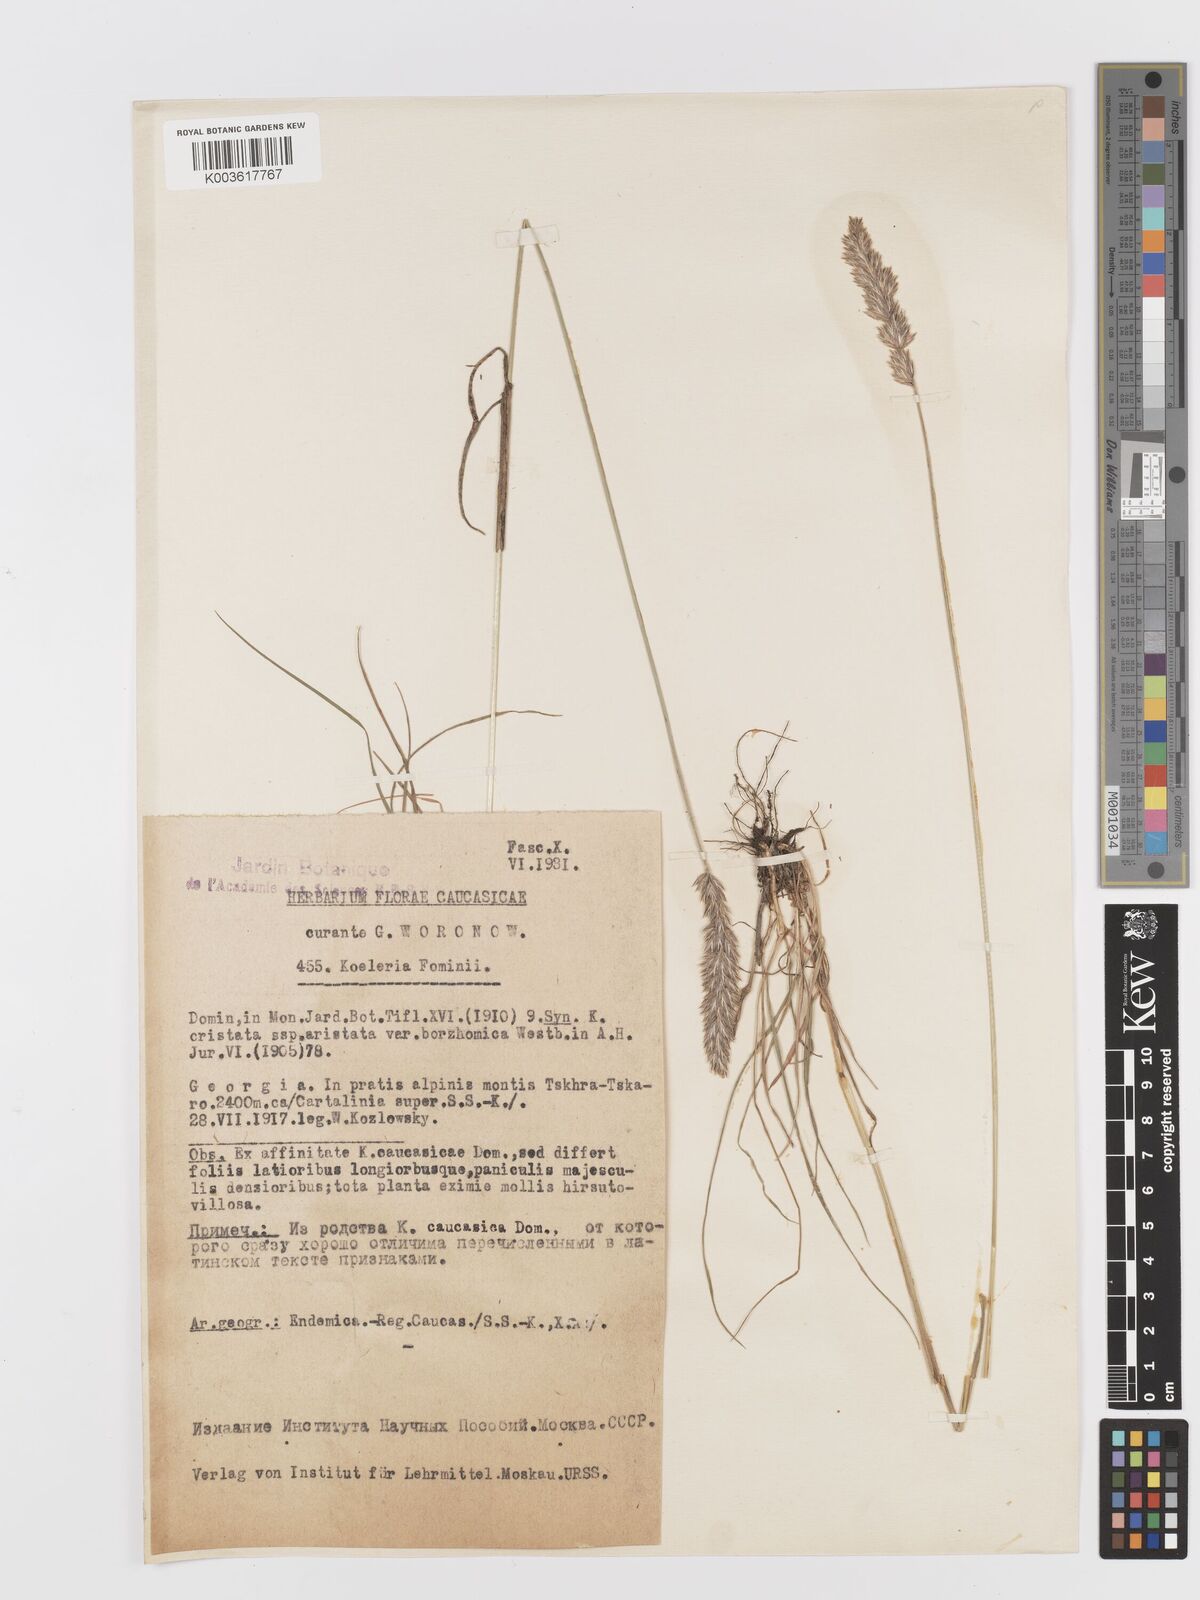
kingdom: Plantae
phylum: Tracheophyta
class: Liliopsida
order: Poales
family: Poaceae
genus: Koeleria
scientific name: Koeleria eriostachya
